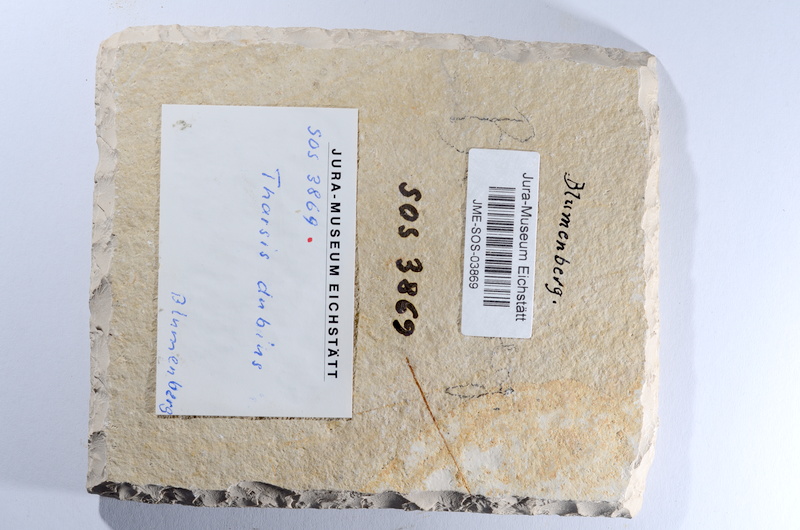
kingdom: Animalia
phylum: Chordata
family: Ascalaboidae
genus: Tharsis
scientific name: Tharsis dubius
